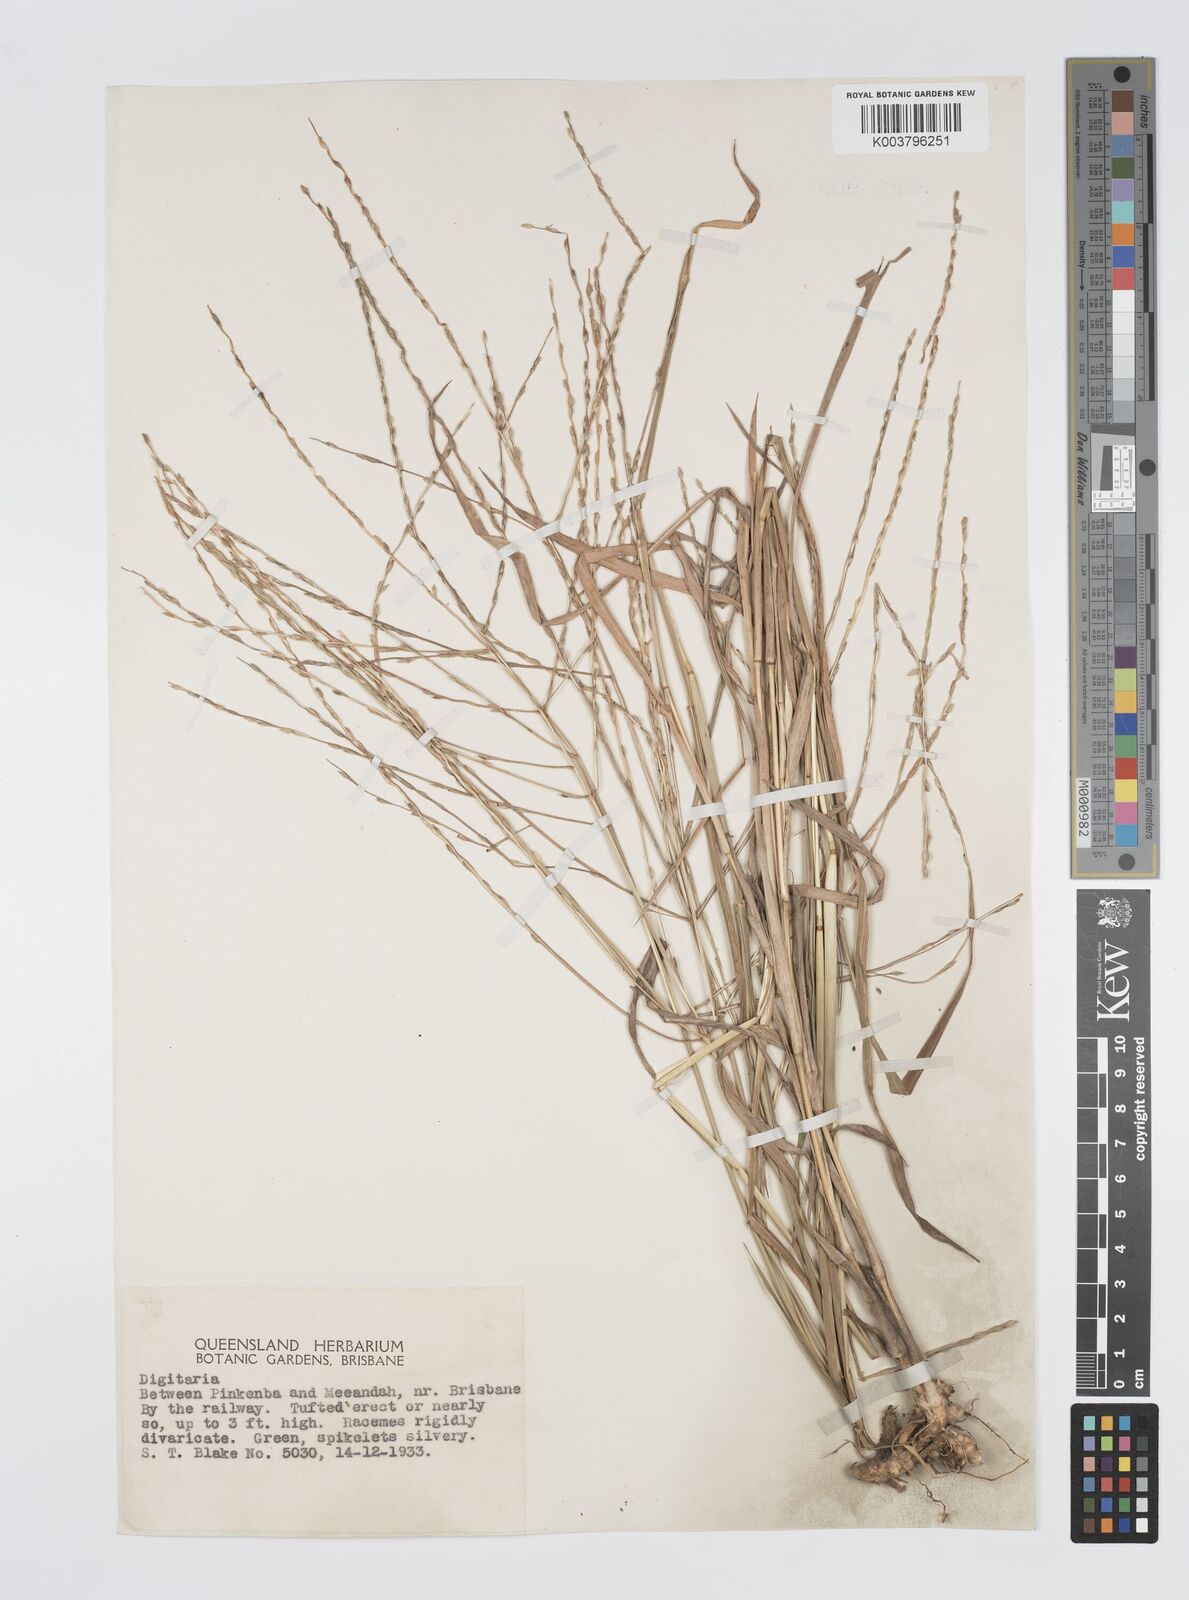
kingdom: Plantae
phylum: Tracheophyta
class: Liliopsida
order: Poales
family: Poaceae
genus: Digitaria
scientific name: Digitaria divaricatissima
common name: Crabgrass
